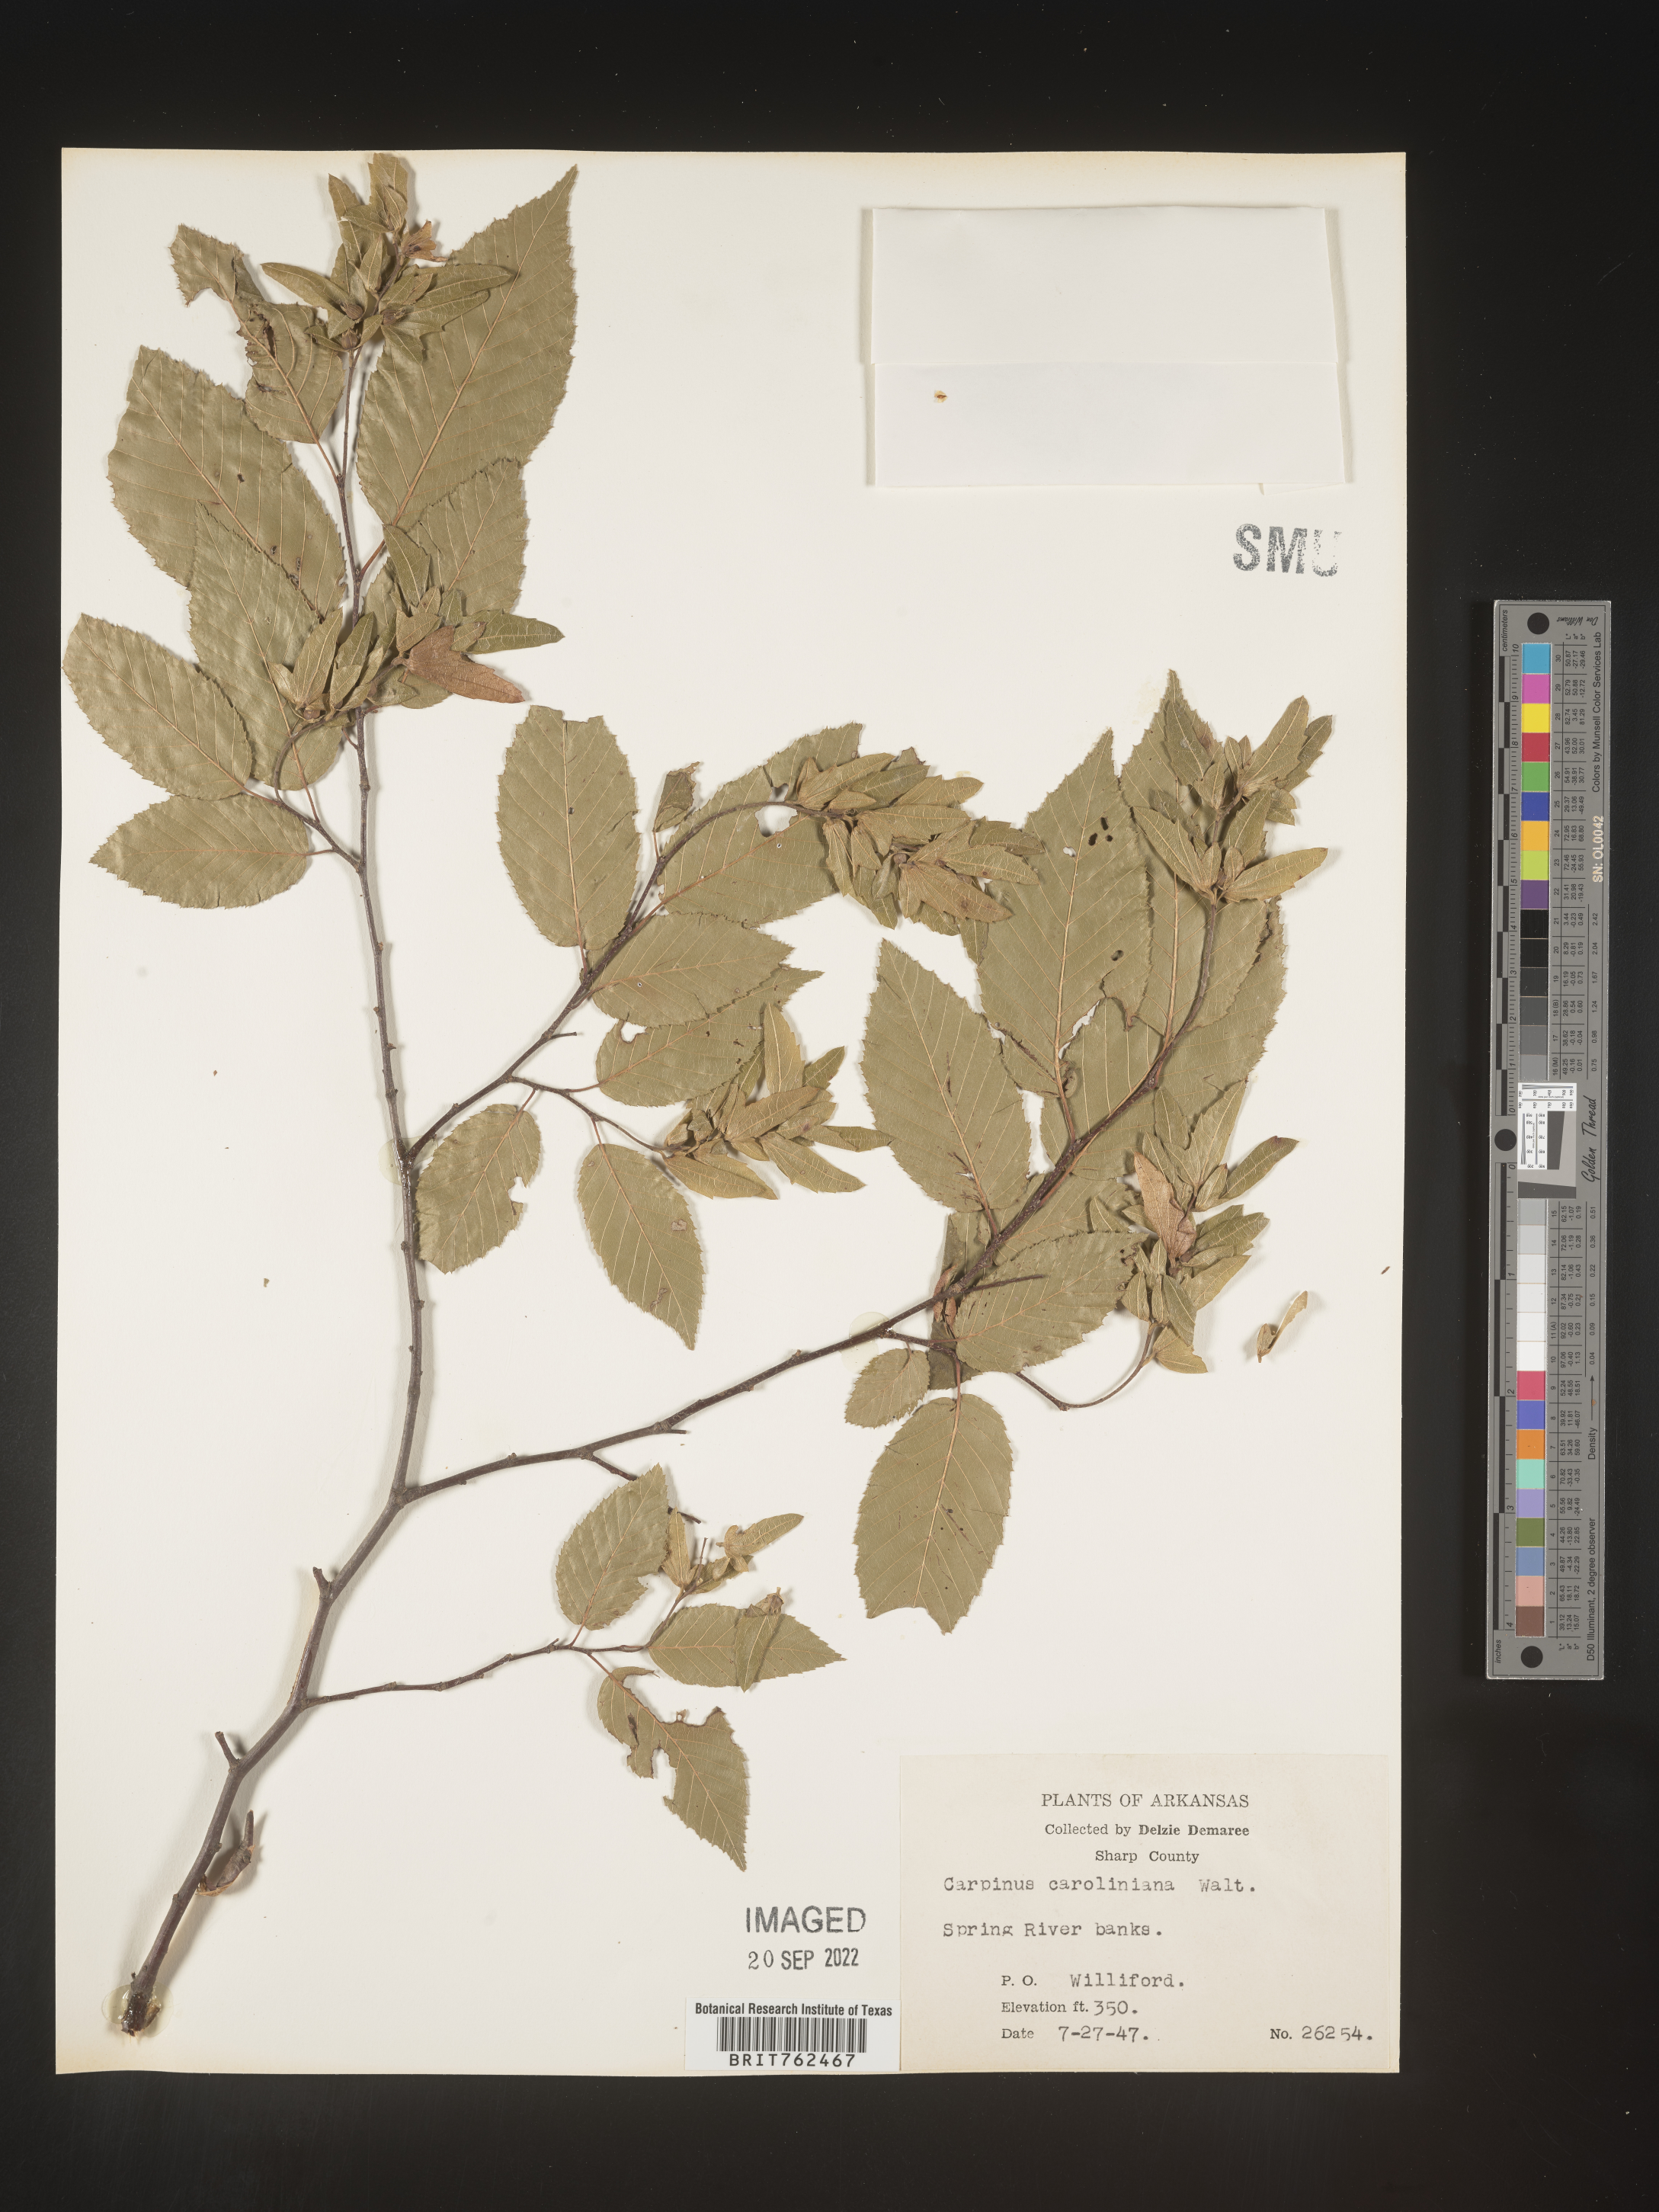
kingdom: Plantae
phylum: Tracheophyta
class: Magnoliopsida
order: Fagales
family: Betulaceae
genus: Carpinus
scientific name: Carpinus caroliniana
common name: American hornbeam
